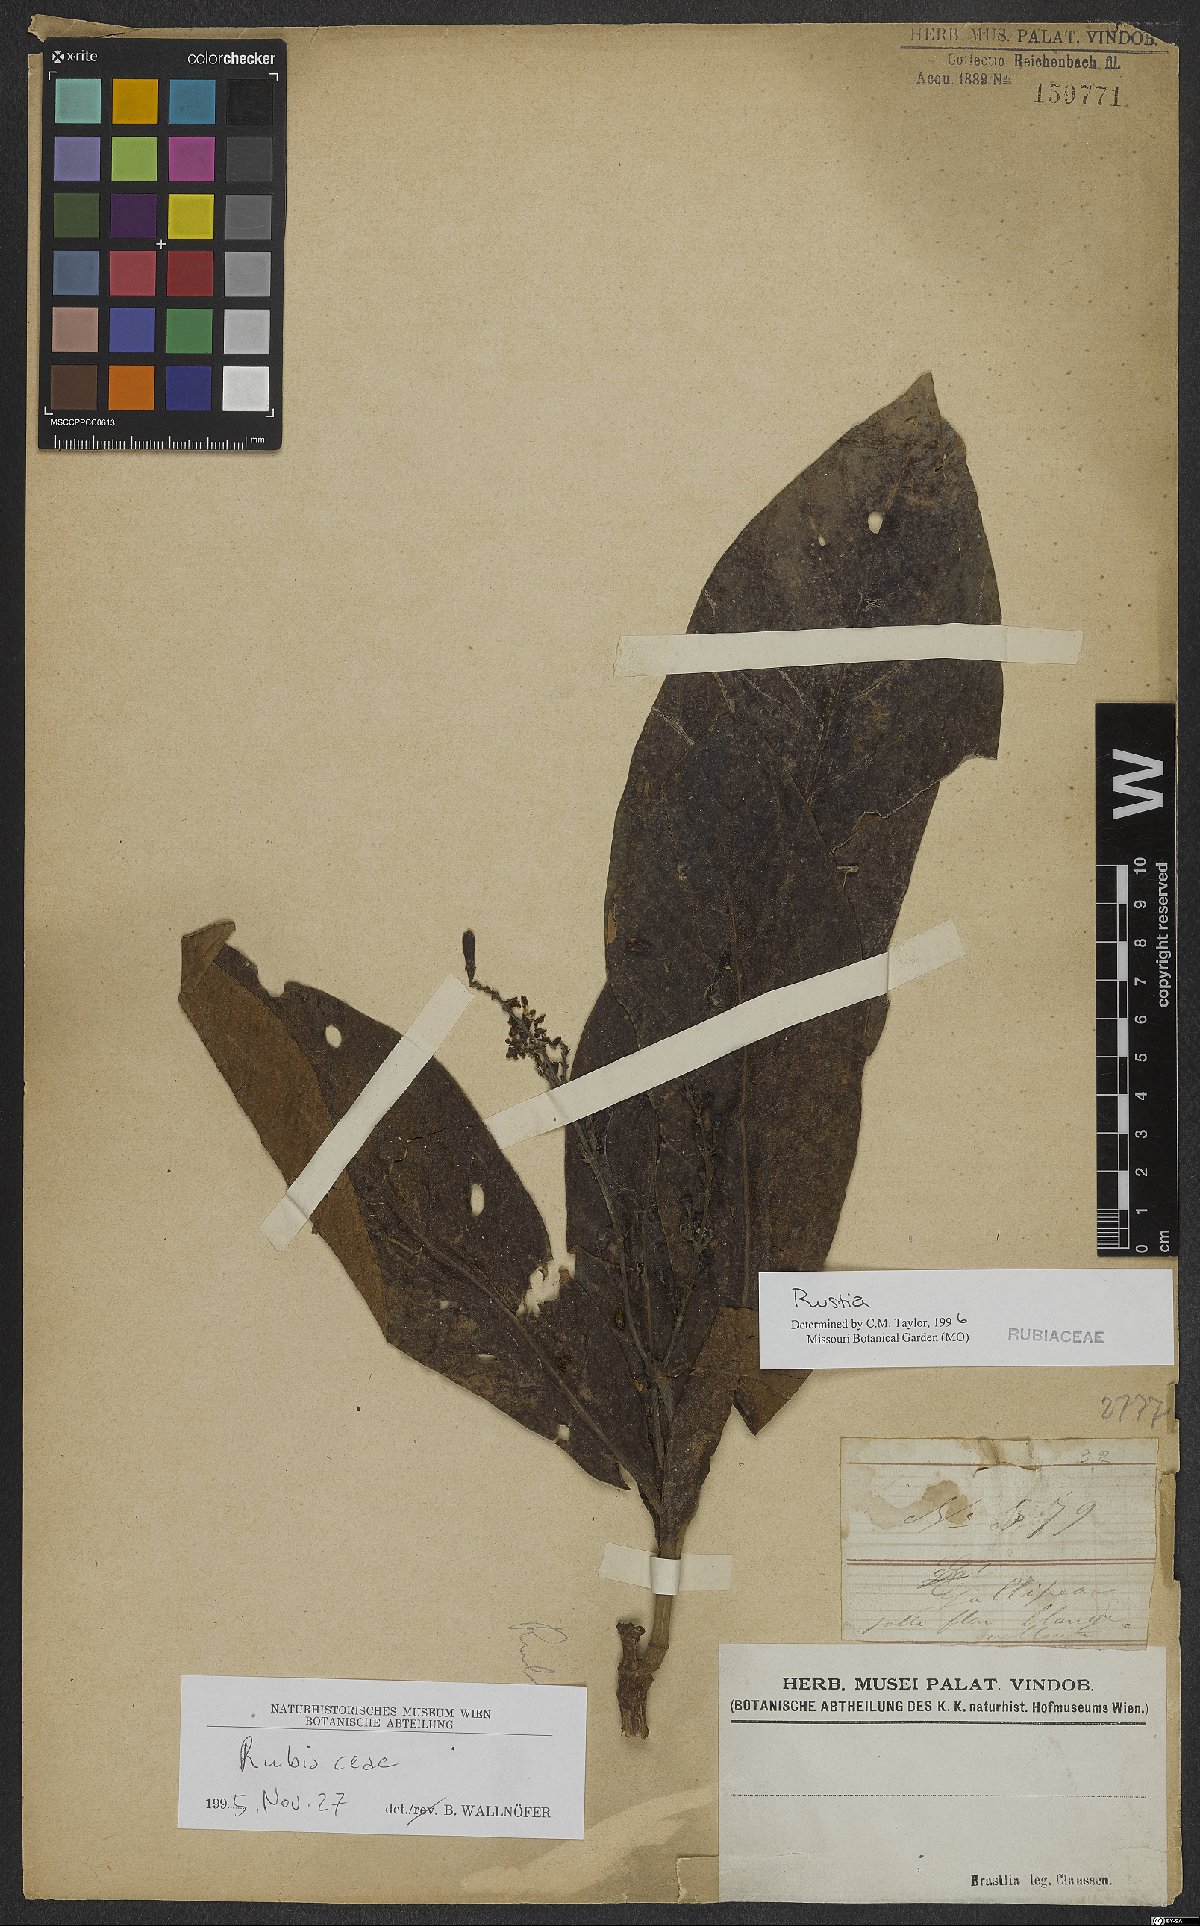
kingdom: Plantae
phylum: Tracheophyta
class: Magnoliopsida
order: Gentianales
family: Rubiaceae
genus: Rustia
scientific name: Rustia
